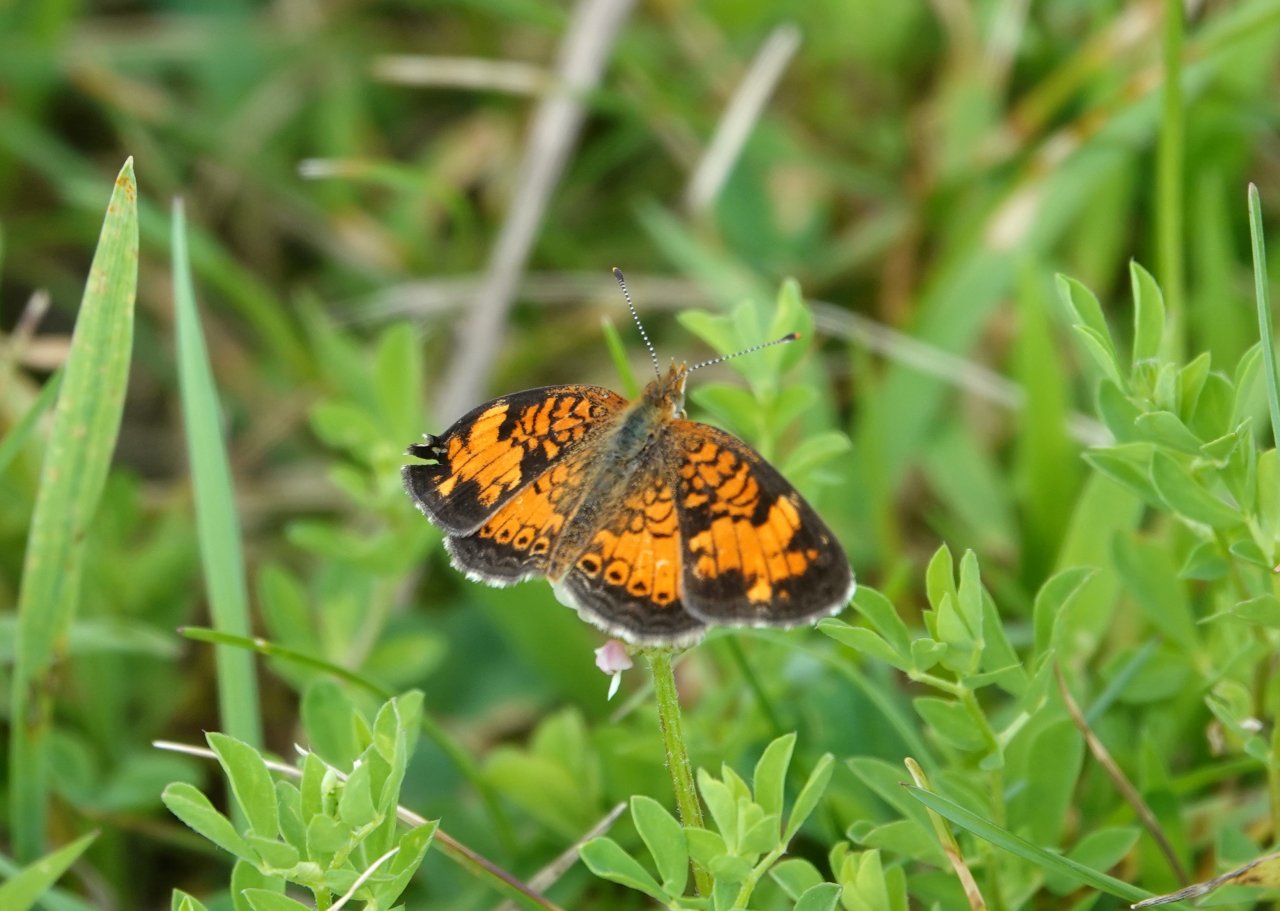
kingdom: Animalia
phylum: Arthropoda
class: Insecta
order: Lepidoptera
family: Nymphalidae
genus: Phyciodes
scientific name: Phyciodes tharos
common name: Northern Crescent
